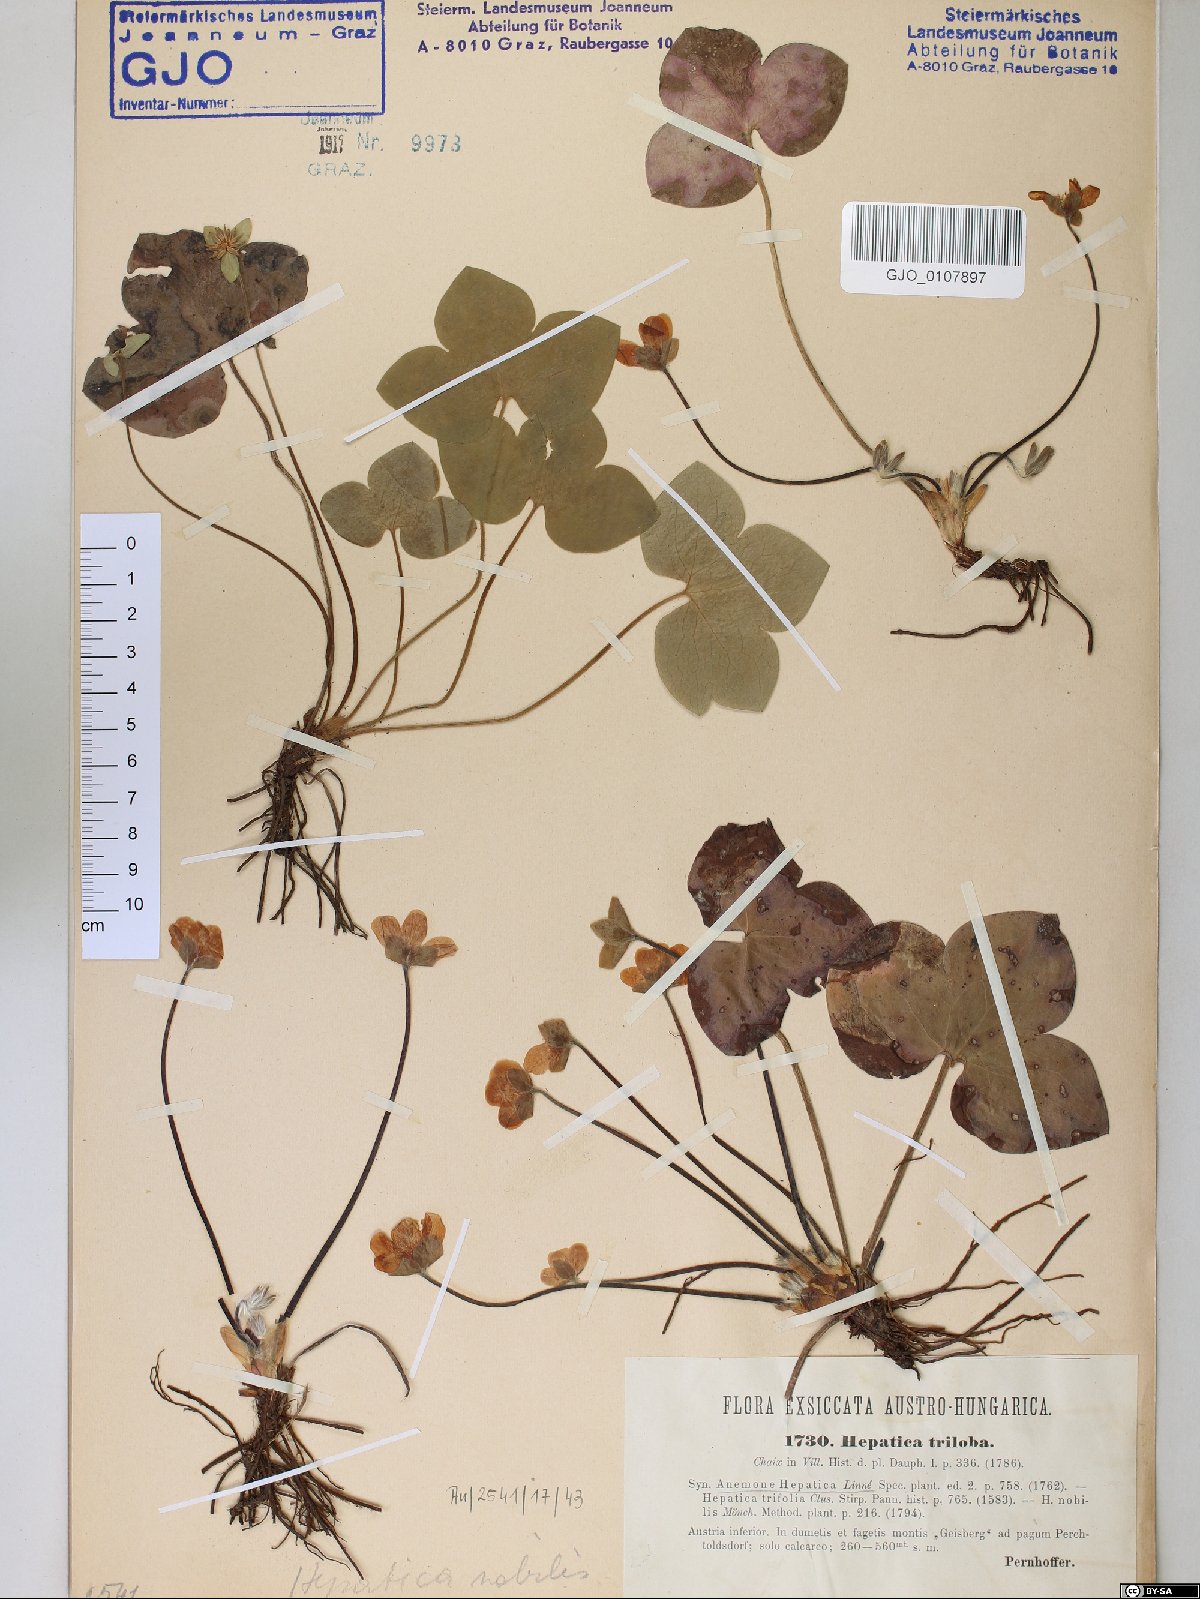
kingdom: Plantae
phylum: Tracheophyta
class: Magnoliopsida
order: Ranunculales
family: Ranunculaceae
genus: Hepatica
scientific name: Hepatica nobilis
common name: Liverleaf
